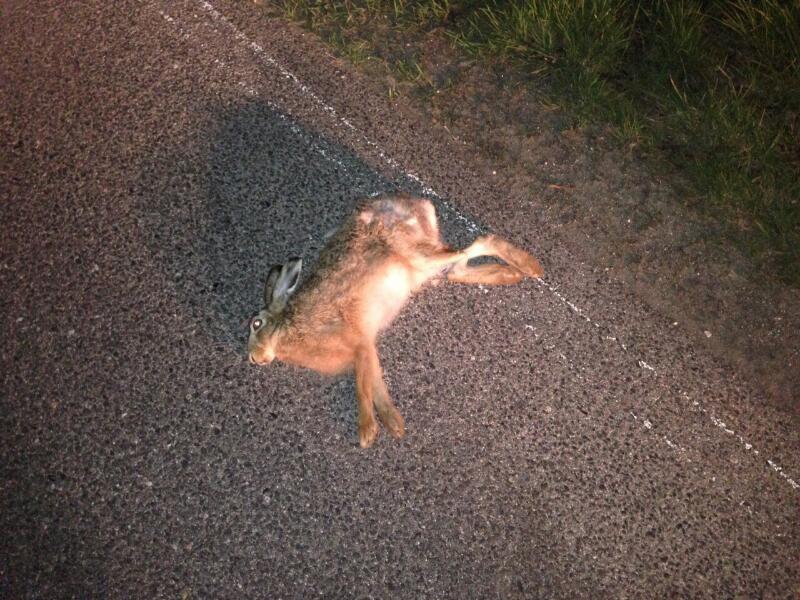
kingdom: Animalia
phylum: Chordata
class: Mammalia
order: Lagomorpha
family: Leporidae
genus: Lepus
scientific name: Lepus europaeus
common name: European hare
